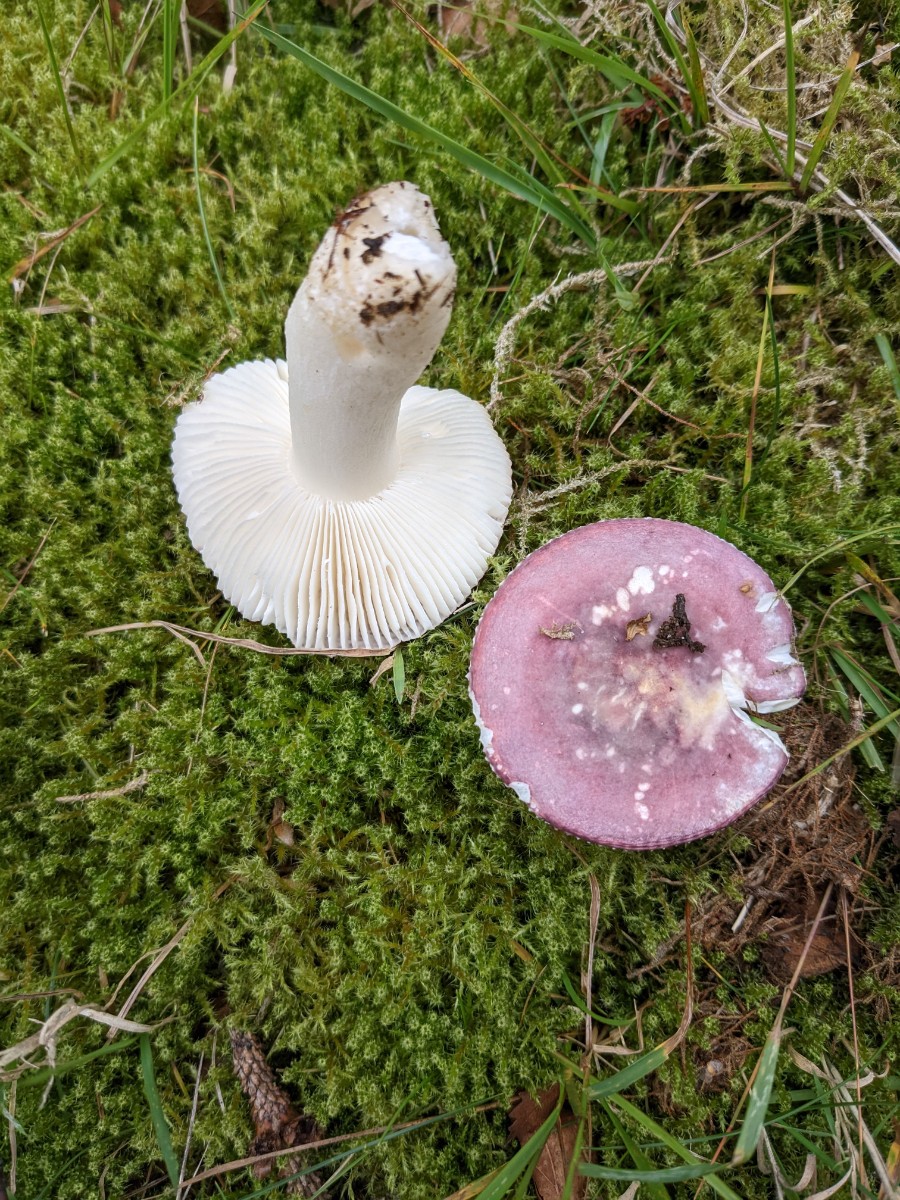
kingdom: Fungi
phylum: Basidiomycota
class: Agaricomycetes
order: Russulales
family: Russulaceae
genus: Russula
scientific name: Russula fragilis
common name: Fragile brittlegill
